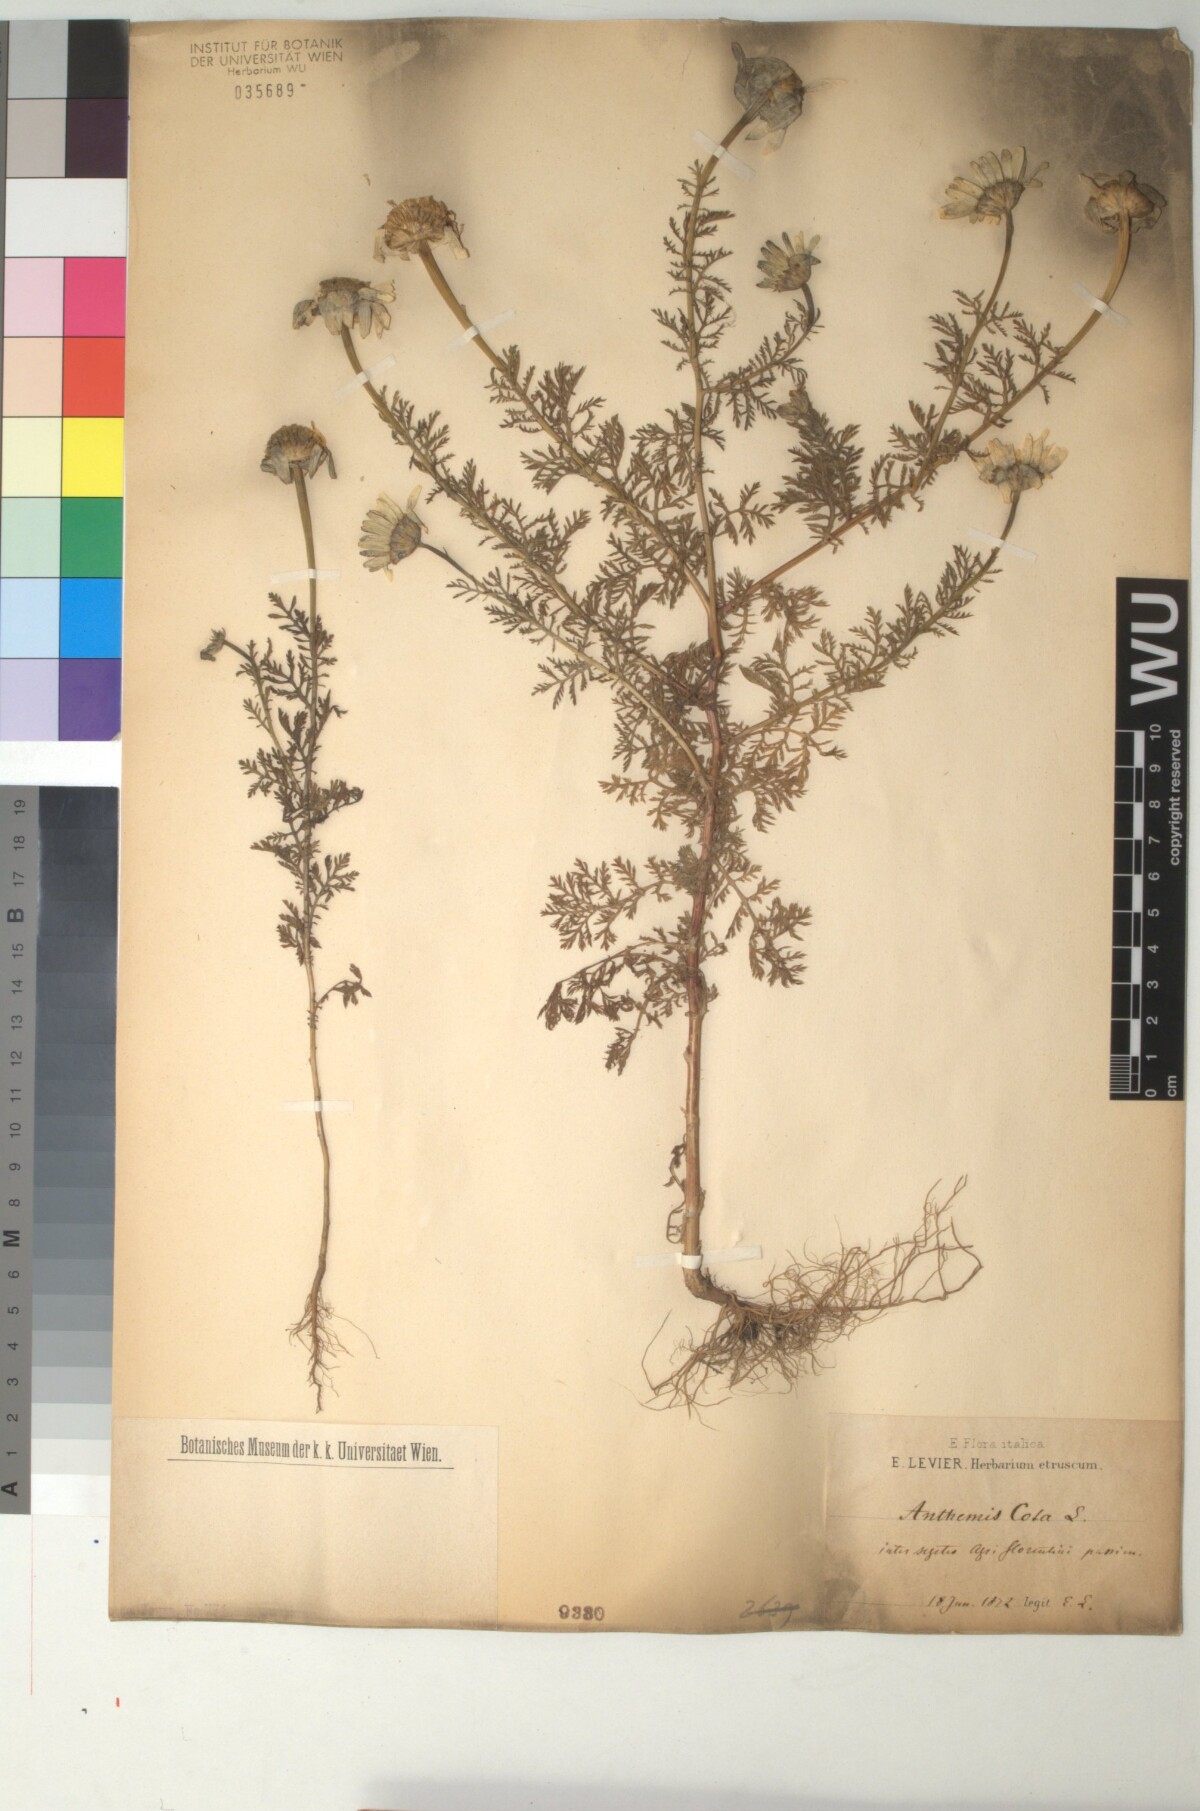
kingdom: Plantae
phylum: Tracheophyta
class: Magnoliopsida
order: Asterales
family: Asteraceae
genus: Cota
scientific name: Cota altissima
